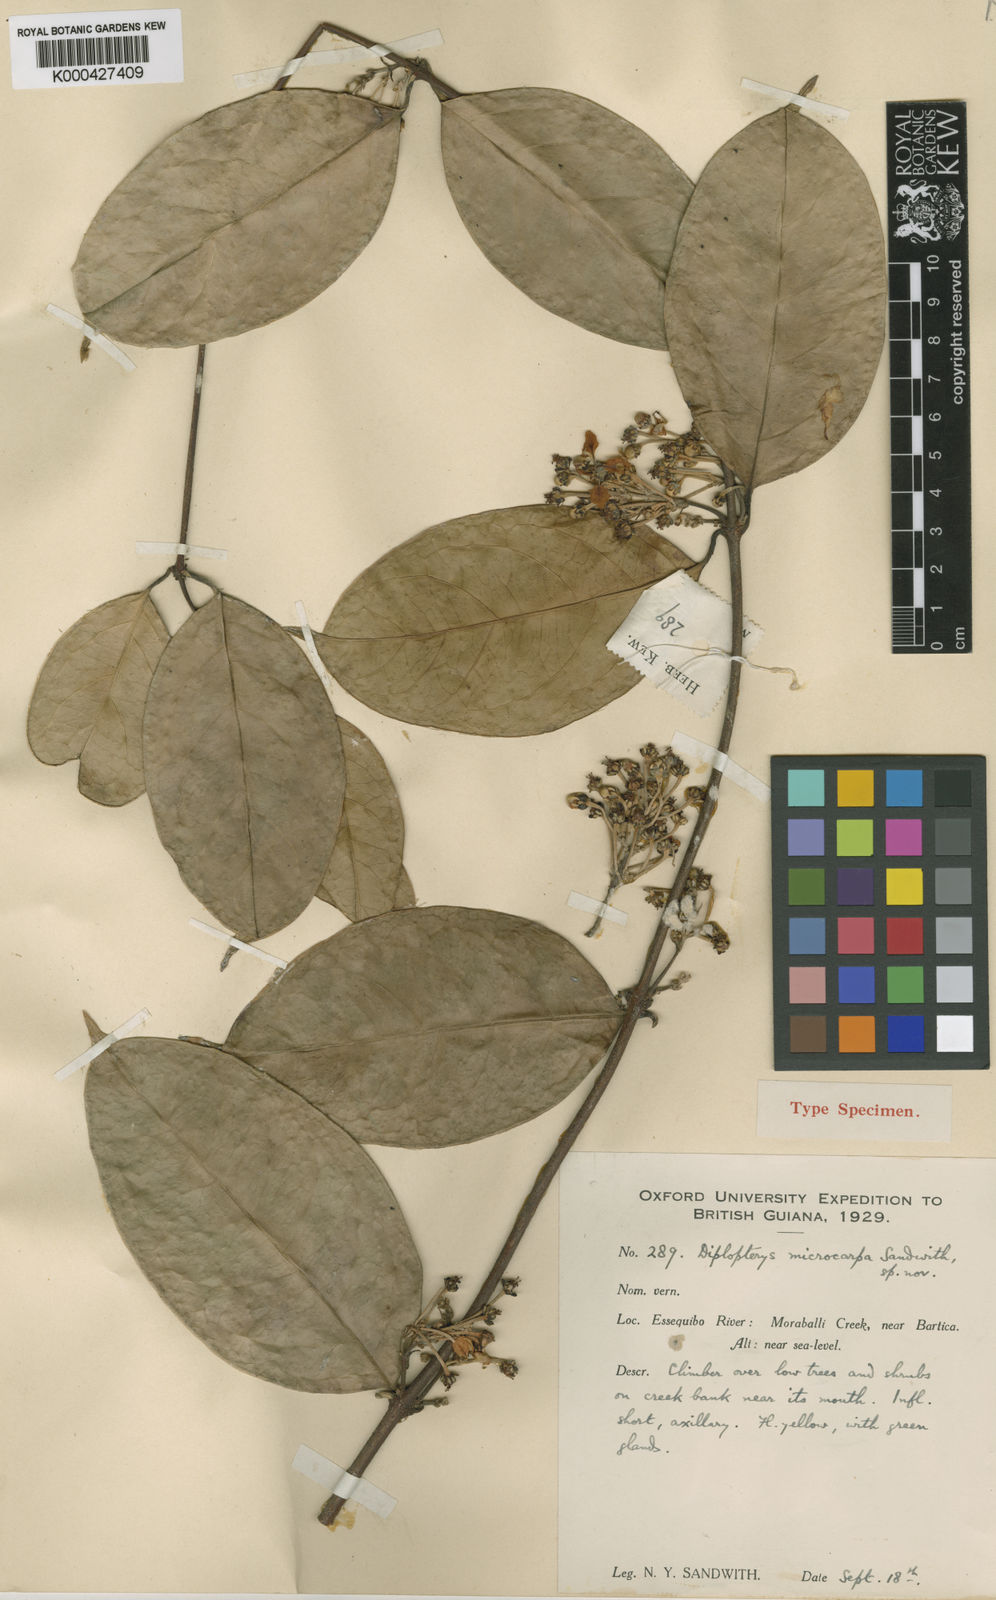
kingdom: Plantae
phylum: Tracheophyta
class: Magnoliopsida
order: Malpighiales
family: Malpighiaceae
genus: Mascagnia
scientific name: Mascagnia microcarpa
